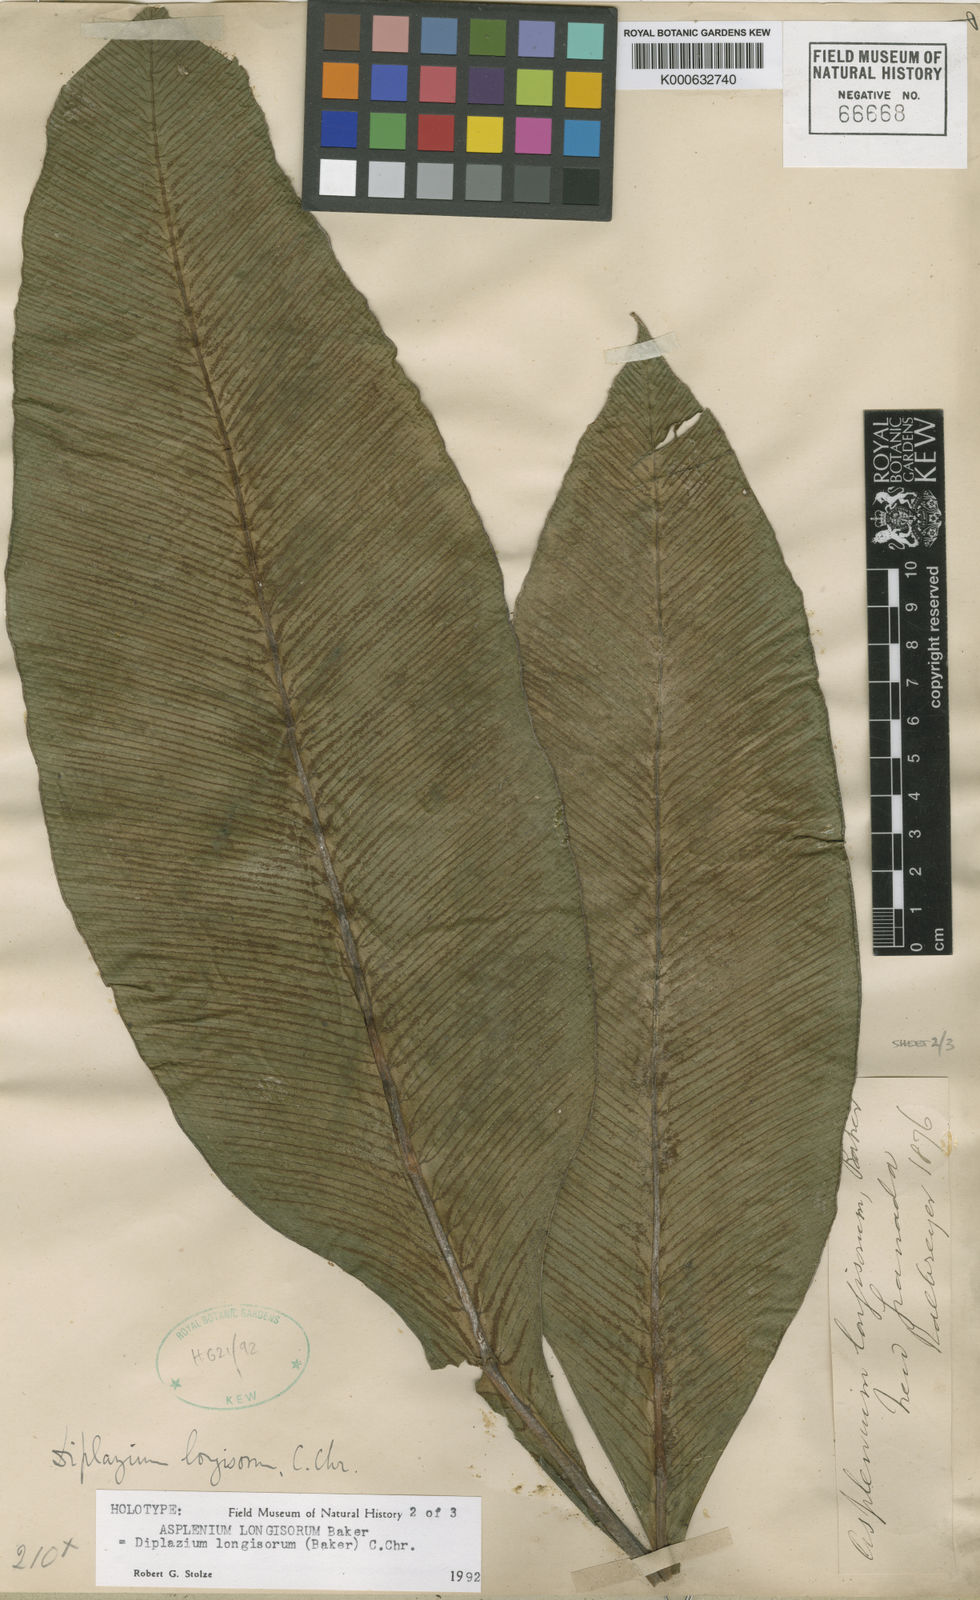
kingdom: Plantae
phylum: Tracheophyta
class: Polypodiopsida
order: Polypodiales
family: Desmophlebiaceae
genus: Desmophlebium
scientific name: Desmophlebium longisorum
